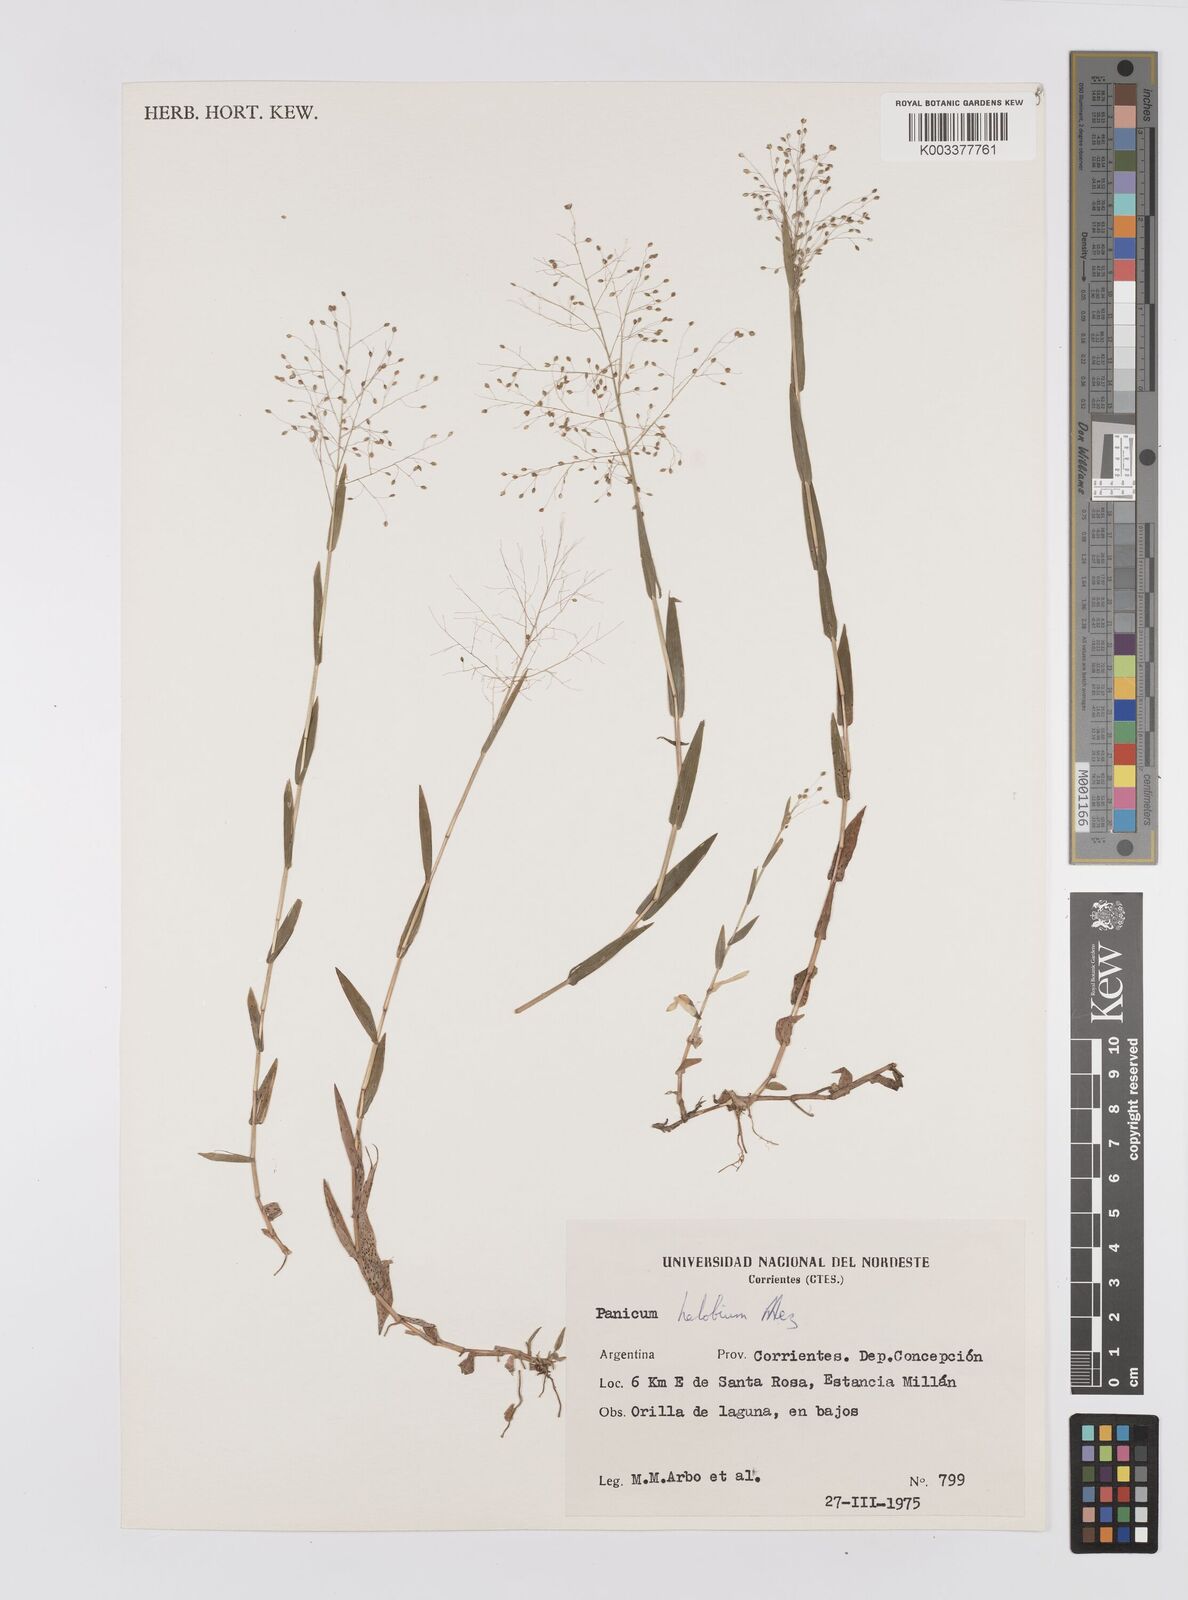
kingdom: Plantae
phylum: Tracheophyta
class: Liliopsida
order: Poales
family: Poaceae
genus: Trichanthecium
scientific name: Trichanthecium schwackeanum
